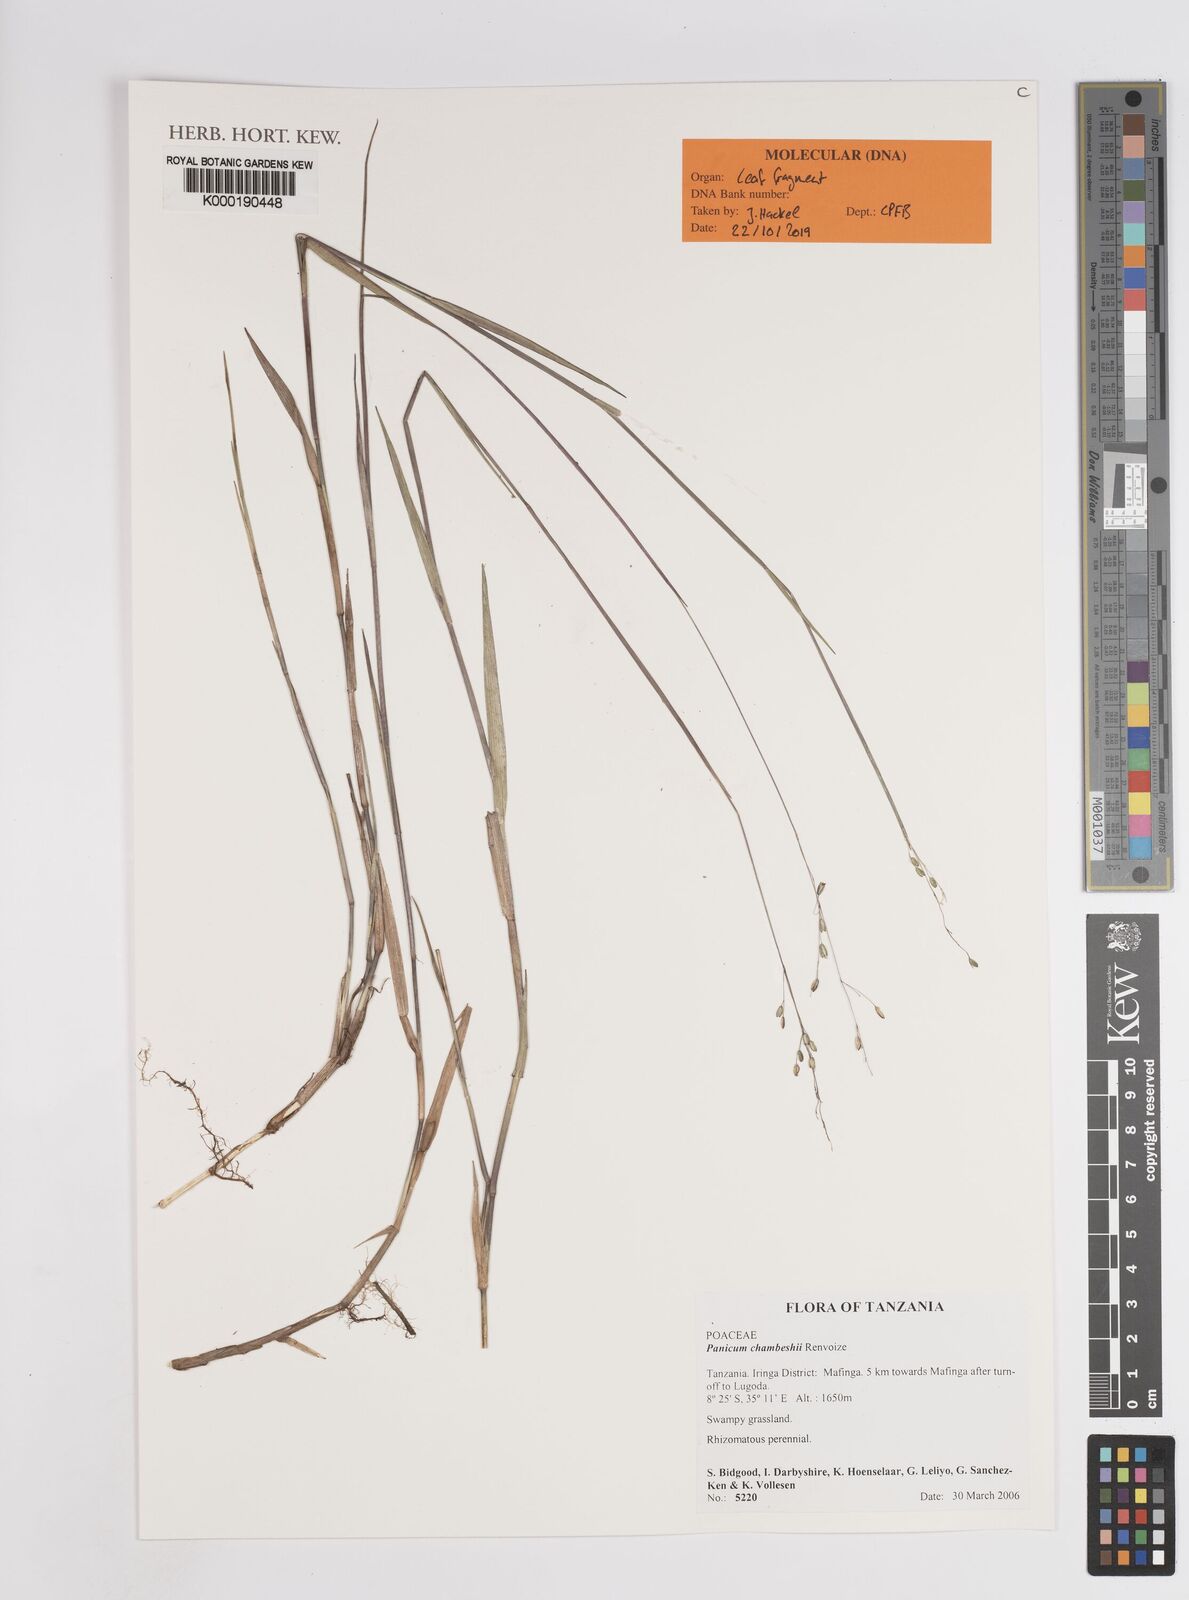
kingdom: Plantae
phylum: Tracheophyta
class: Liliopsida
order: Poales
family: Poaceae
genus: Panicum
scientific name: Panicum chambeshii
